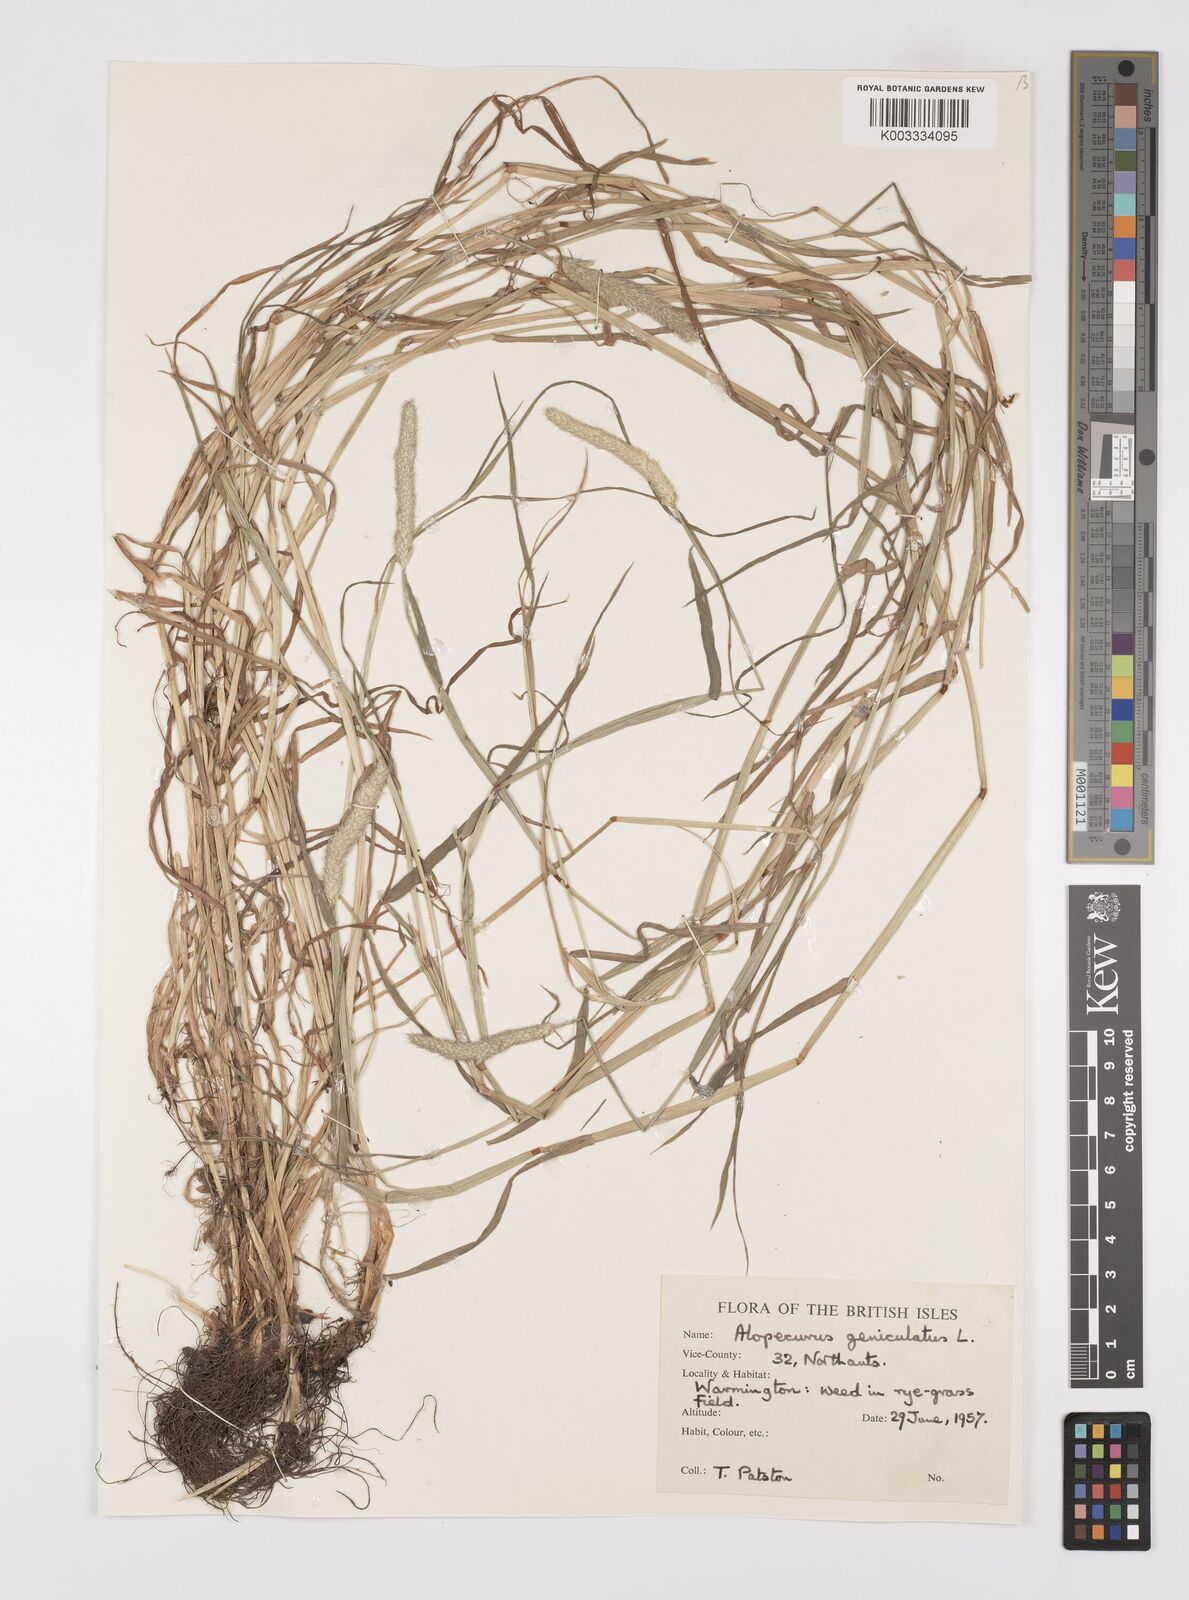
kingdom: Plantae
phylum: Tracheophyta
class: Liliopsida
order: Poales
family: Poaceae
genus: Alopecurus
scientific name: Alopecurus geniculatus
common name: Water foxtail
